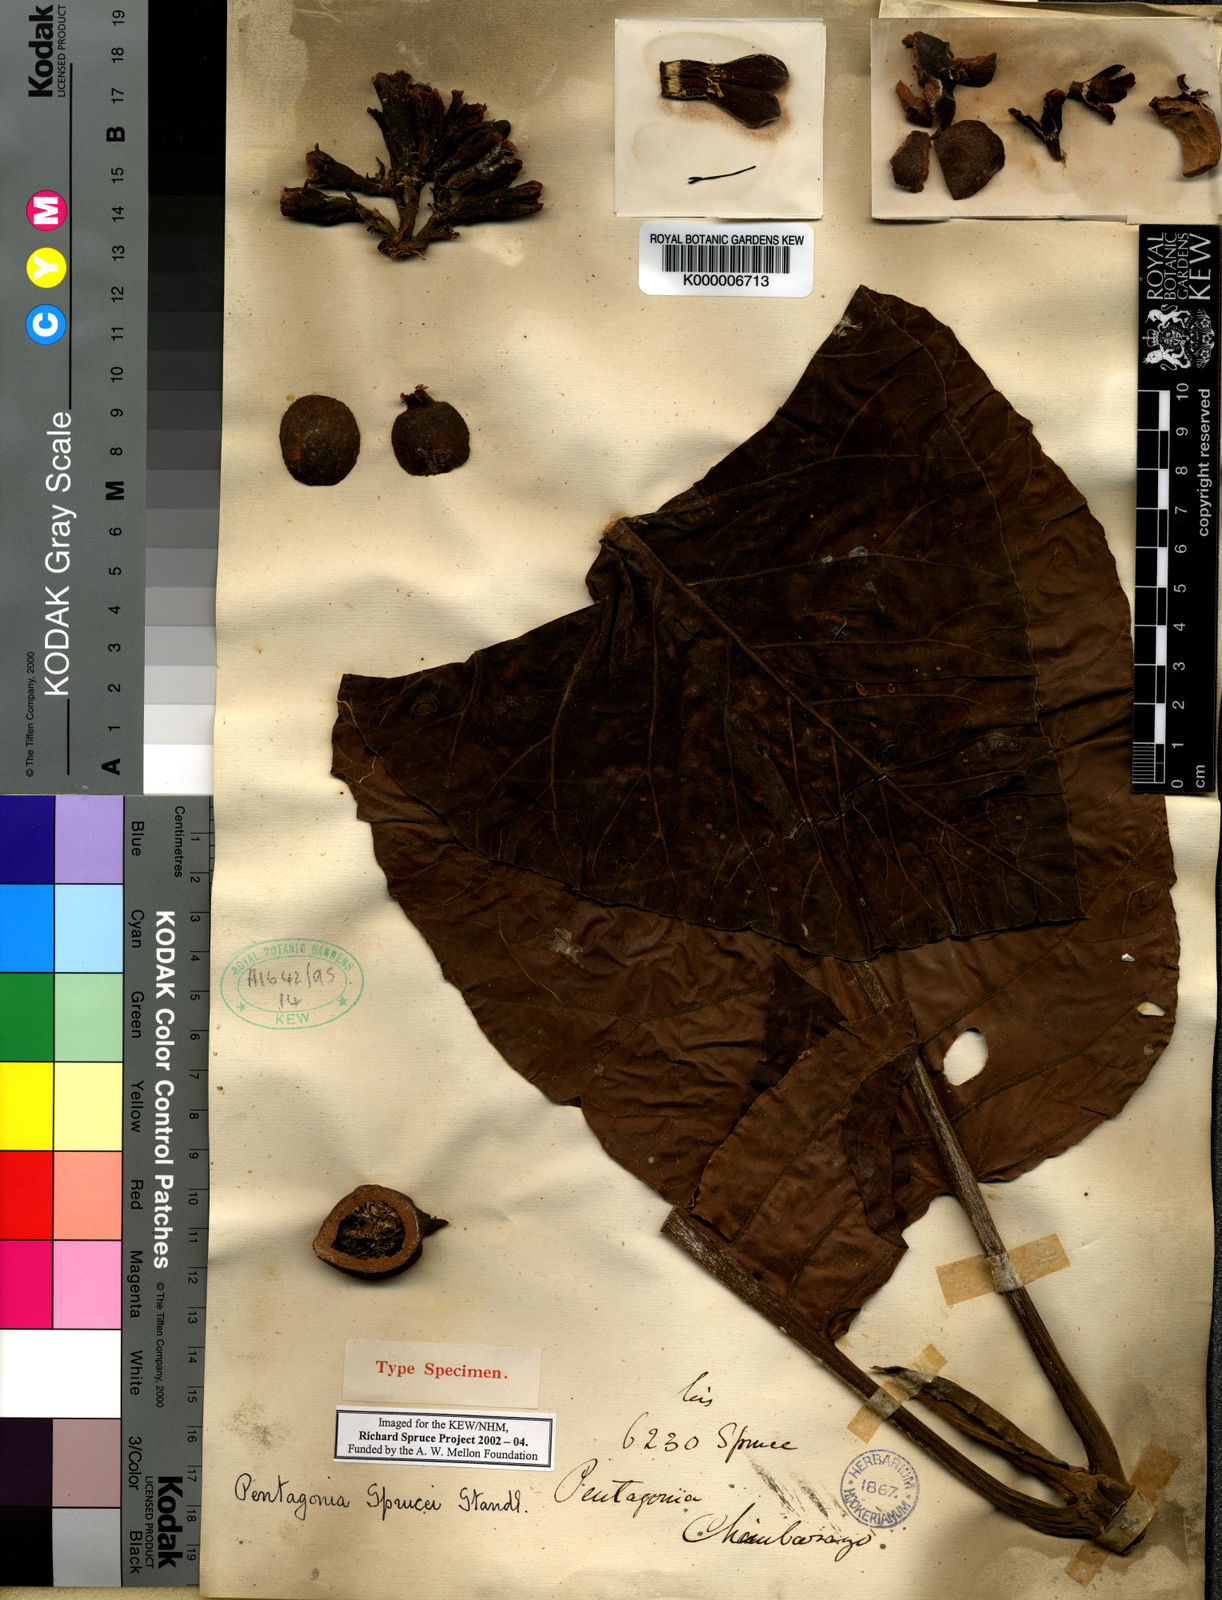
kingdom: Plantae
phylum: Tracheophyta
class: Magnoliopsida
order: Gentianales
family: Rubiaceae
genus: Pentagonia
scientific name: Pentagonia macrophylla
